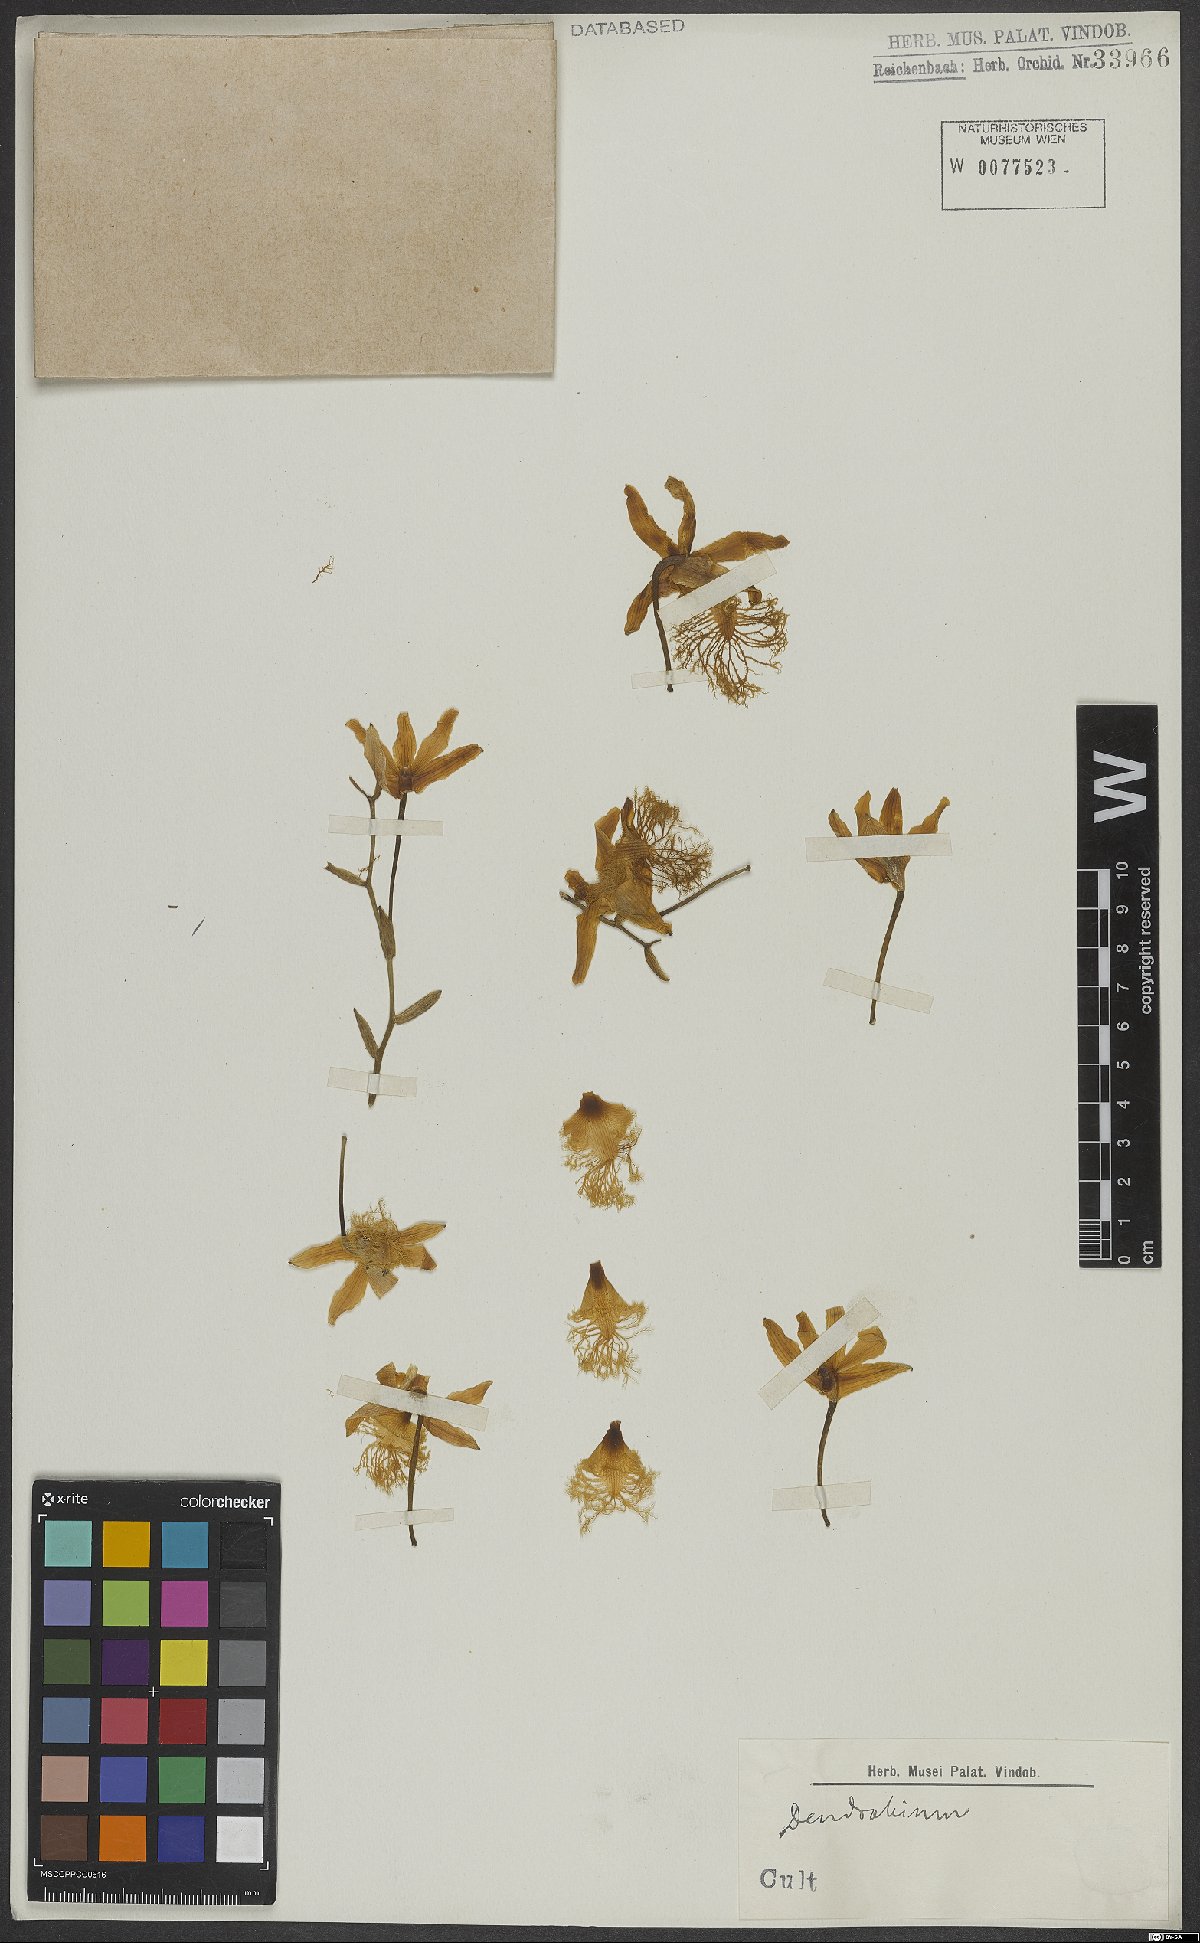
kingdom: Plantae
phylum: Tracheophyta
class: Liliopsida
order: Asparagales
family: Orchidaceae
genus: Dendrobium
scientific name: Dendrobium brymerianum
